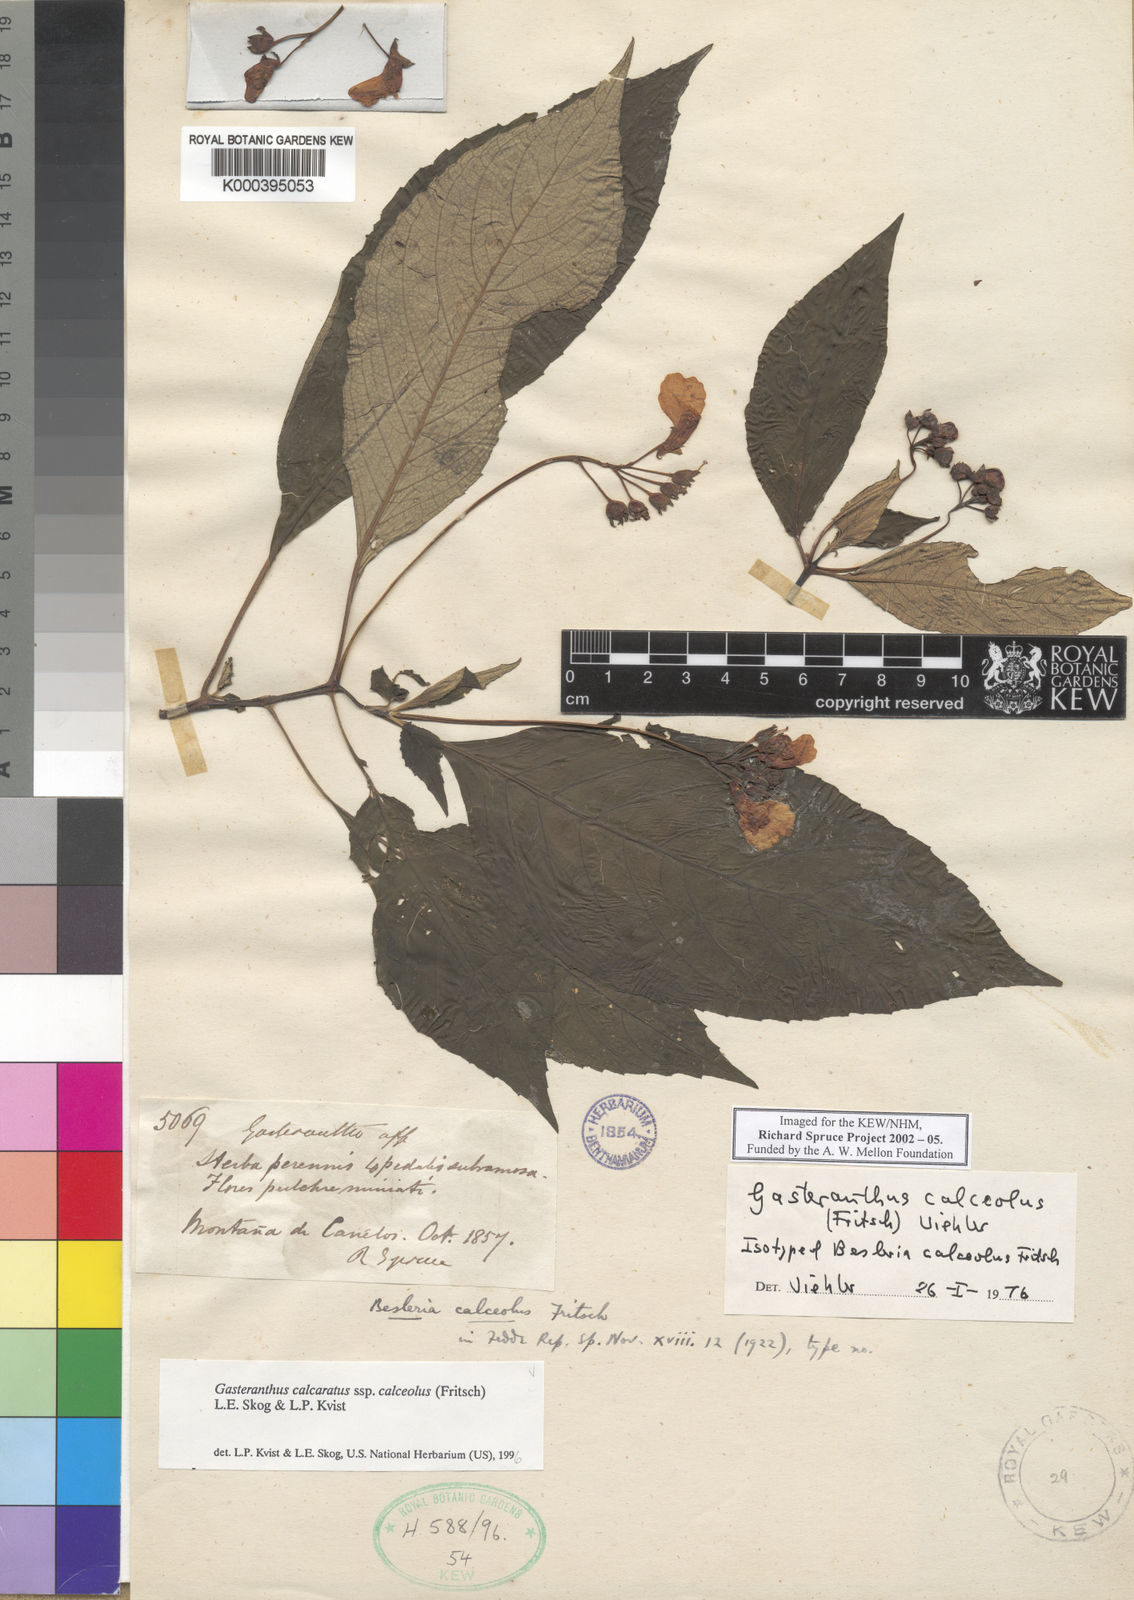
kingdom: Plantae
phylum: Tracheophyta
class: Magnoliopsida
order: Lamiales
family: Gesneriaceae
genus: Gasteranthus
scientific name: Gasteranthus calcaratus
